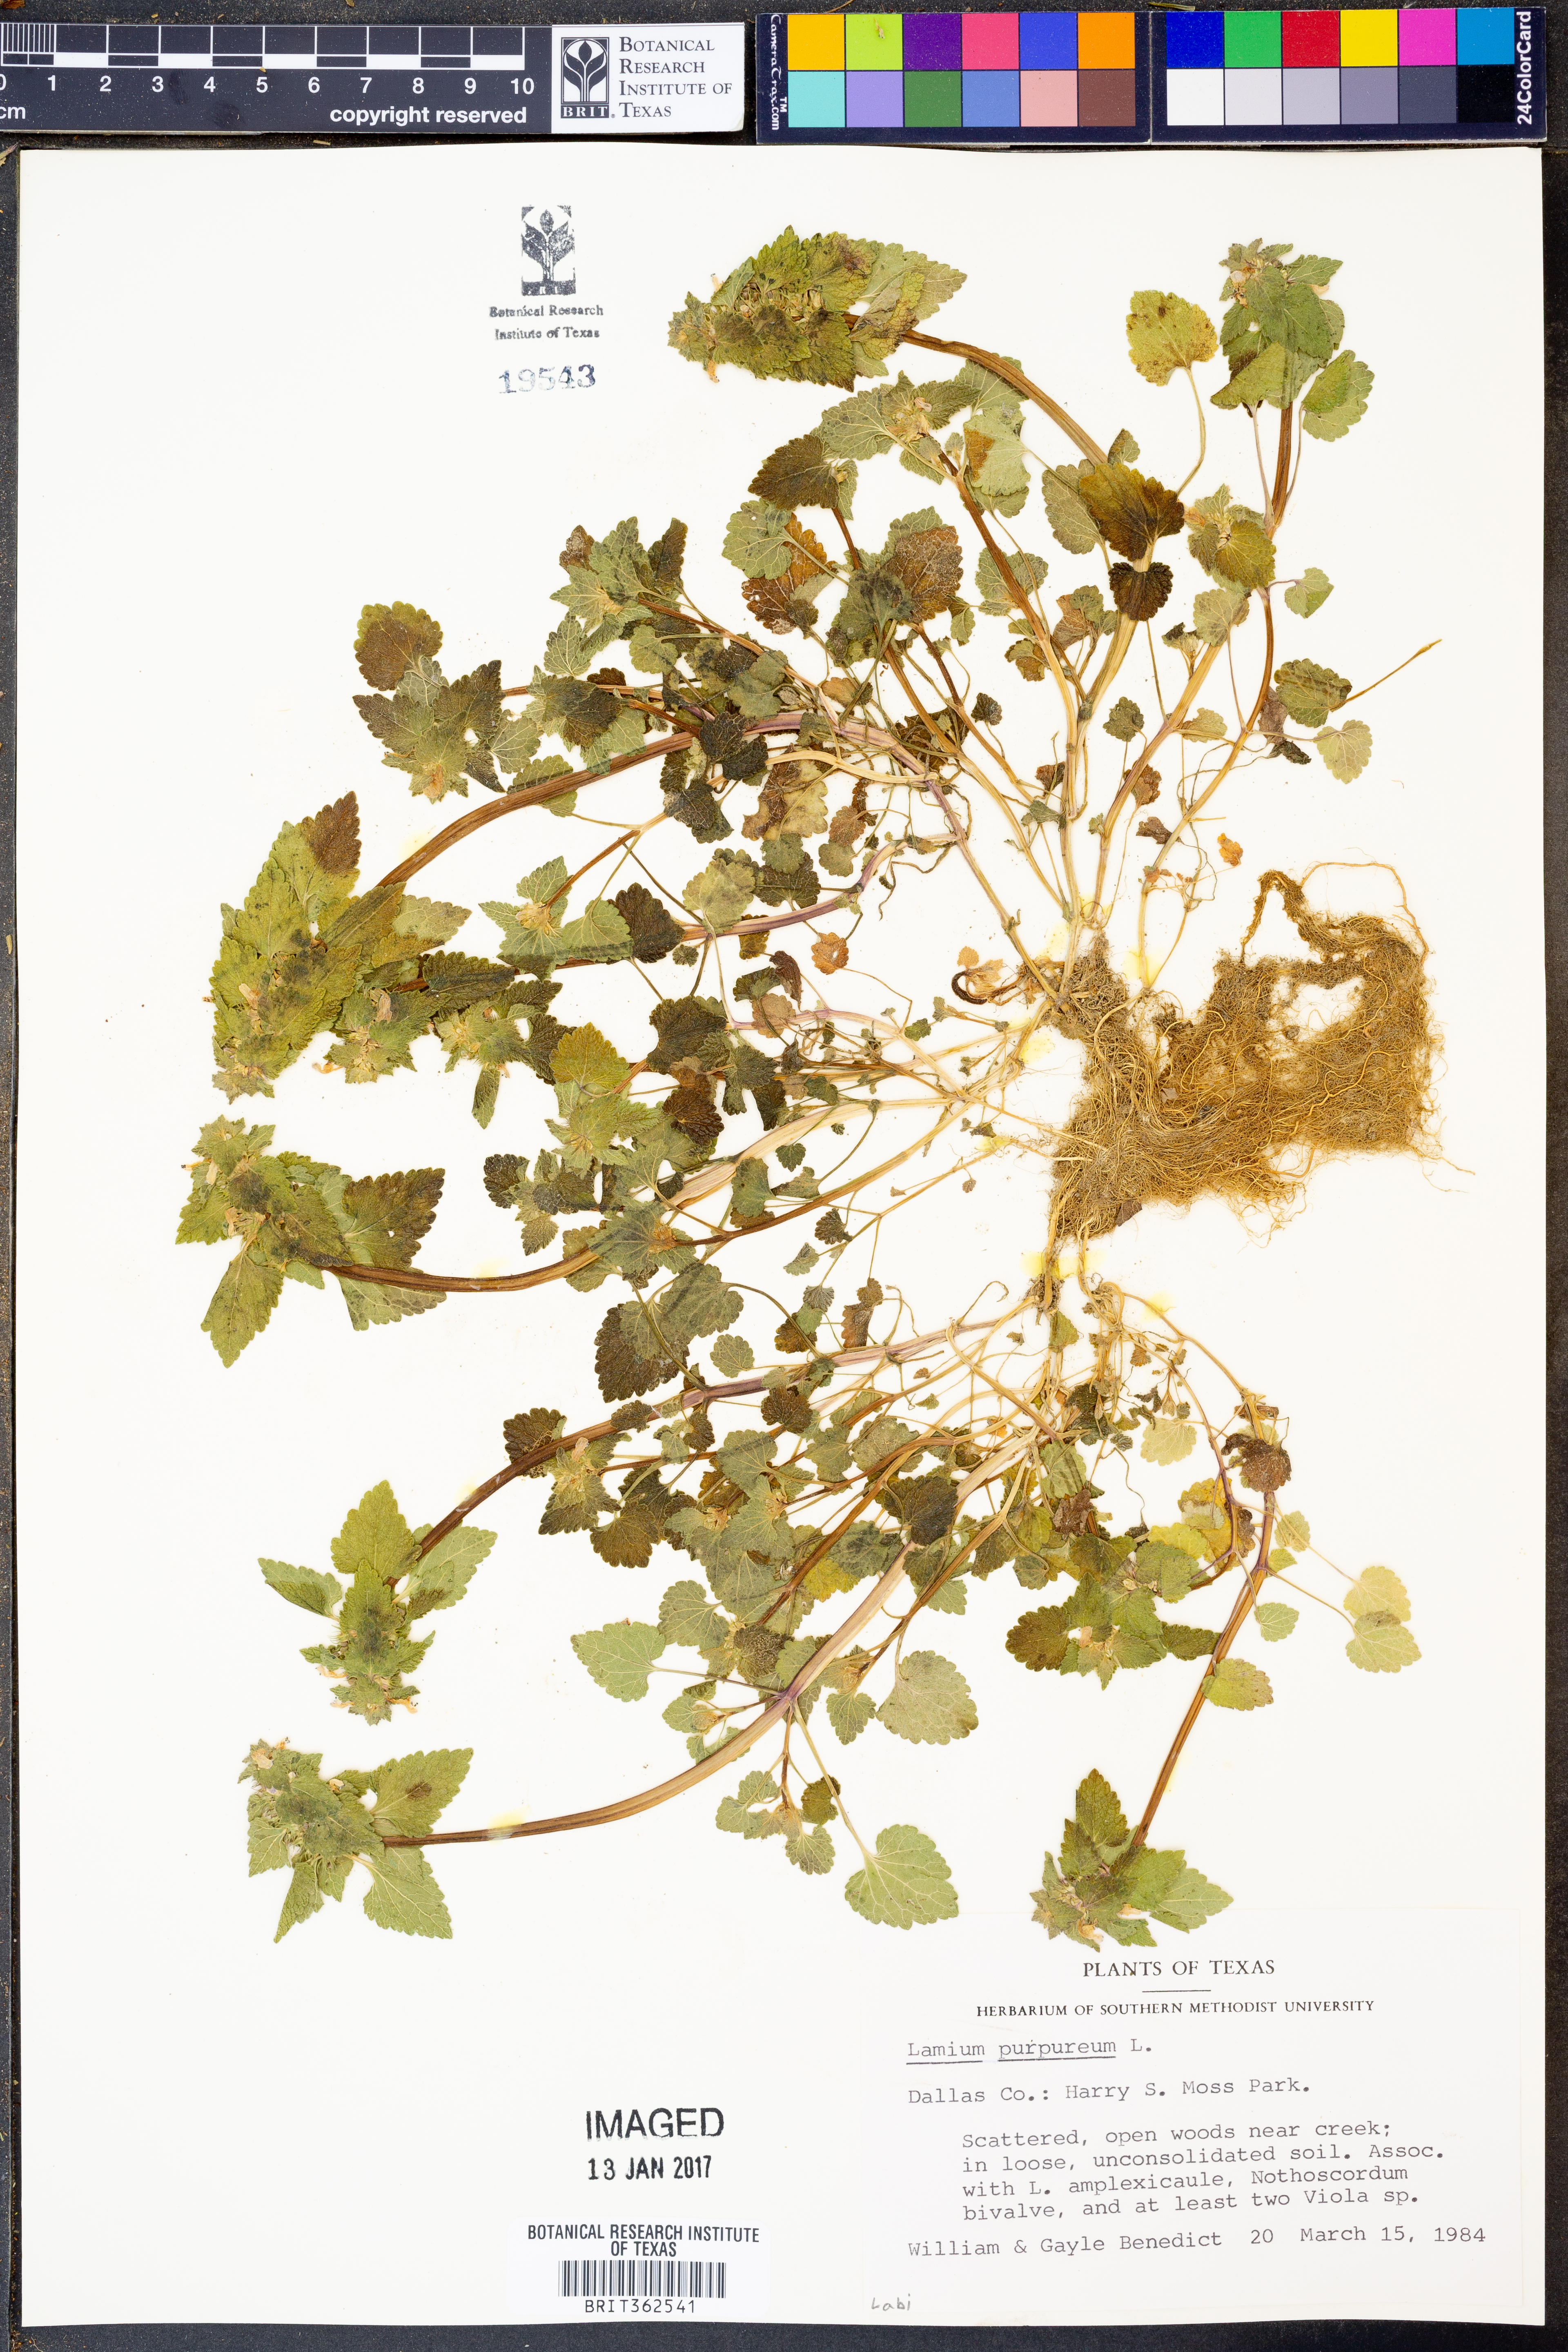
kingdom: Plantae
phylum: Tracheophyta
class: Magnoliopsida
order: Lamiales
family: Lamiaceae
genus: Lamium
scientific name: Lamium purpureum
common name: Red dead-nettle
